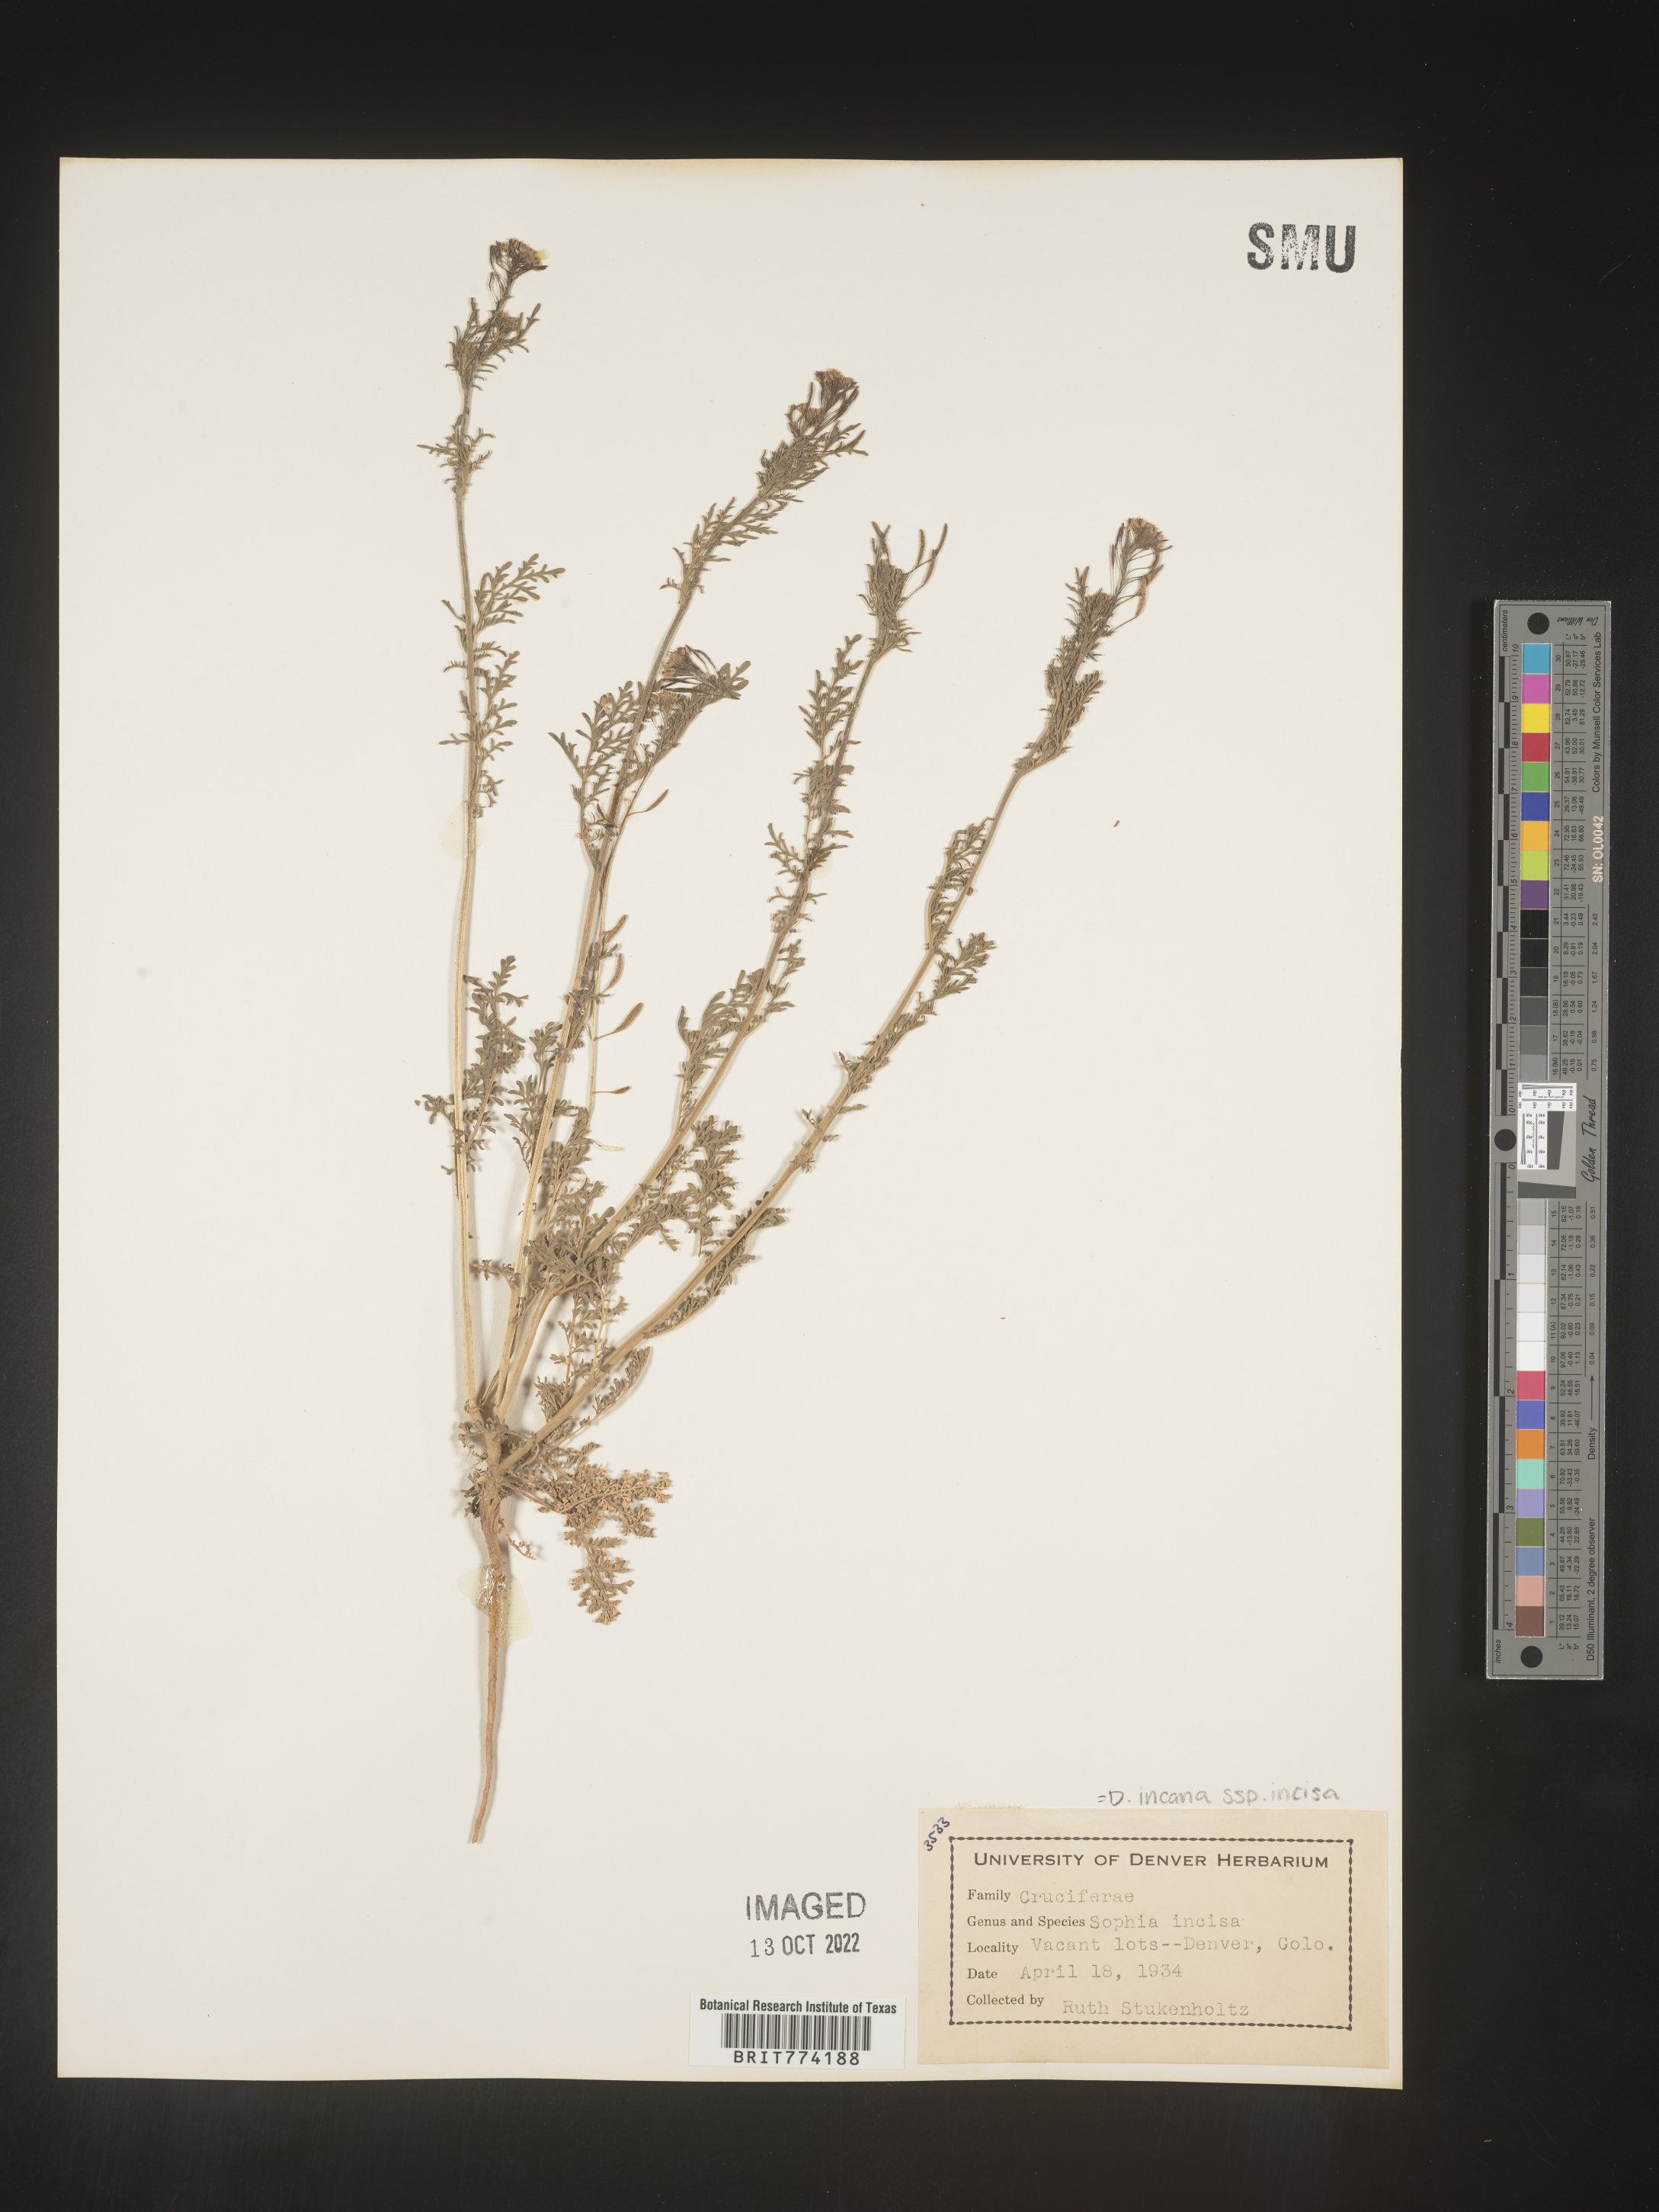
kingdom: Plantae
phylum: Tracheophyta
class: Magnoliopsida
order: Brassicales
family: Brassicaceae
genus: Descurainia
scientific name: Descurainia
